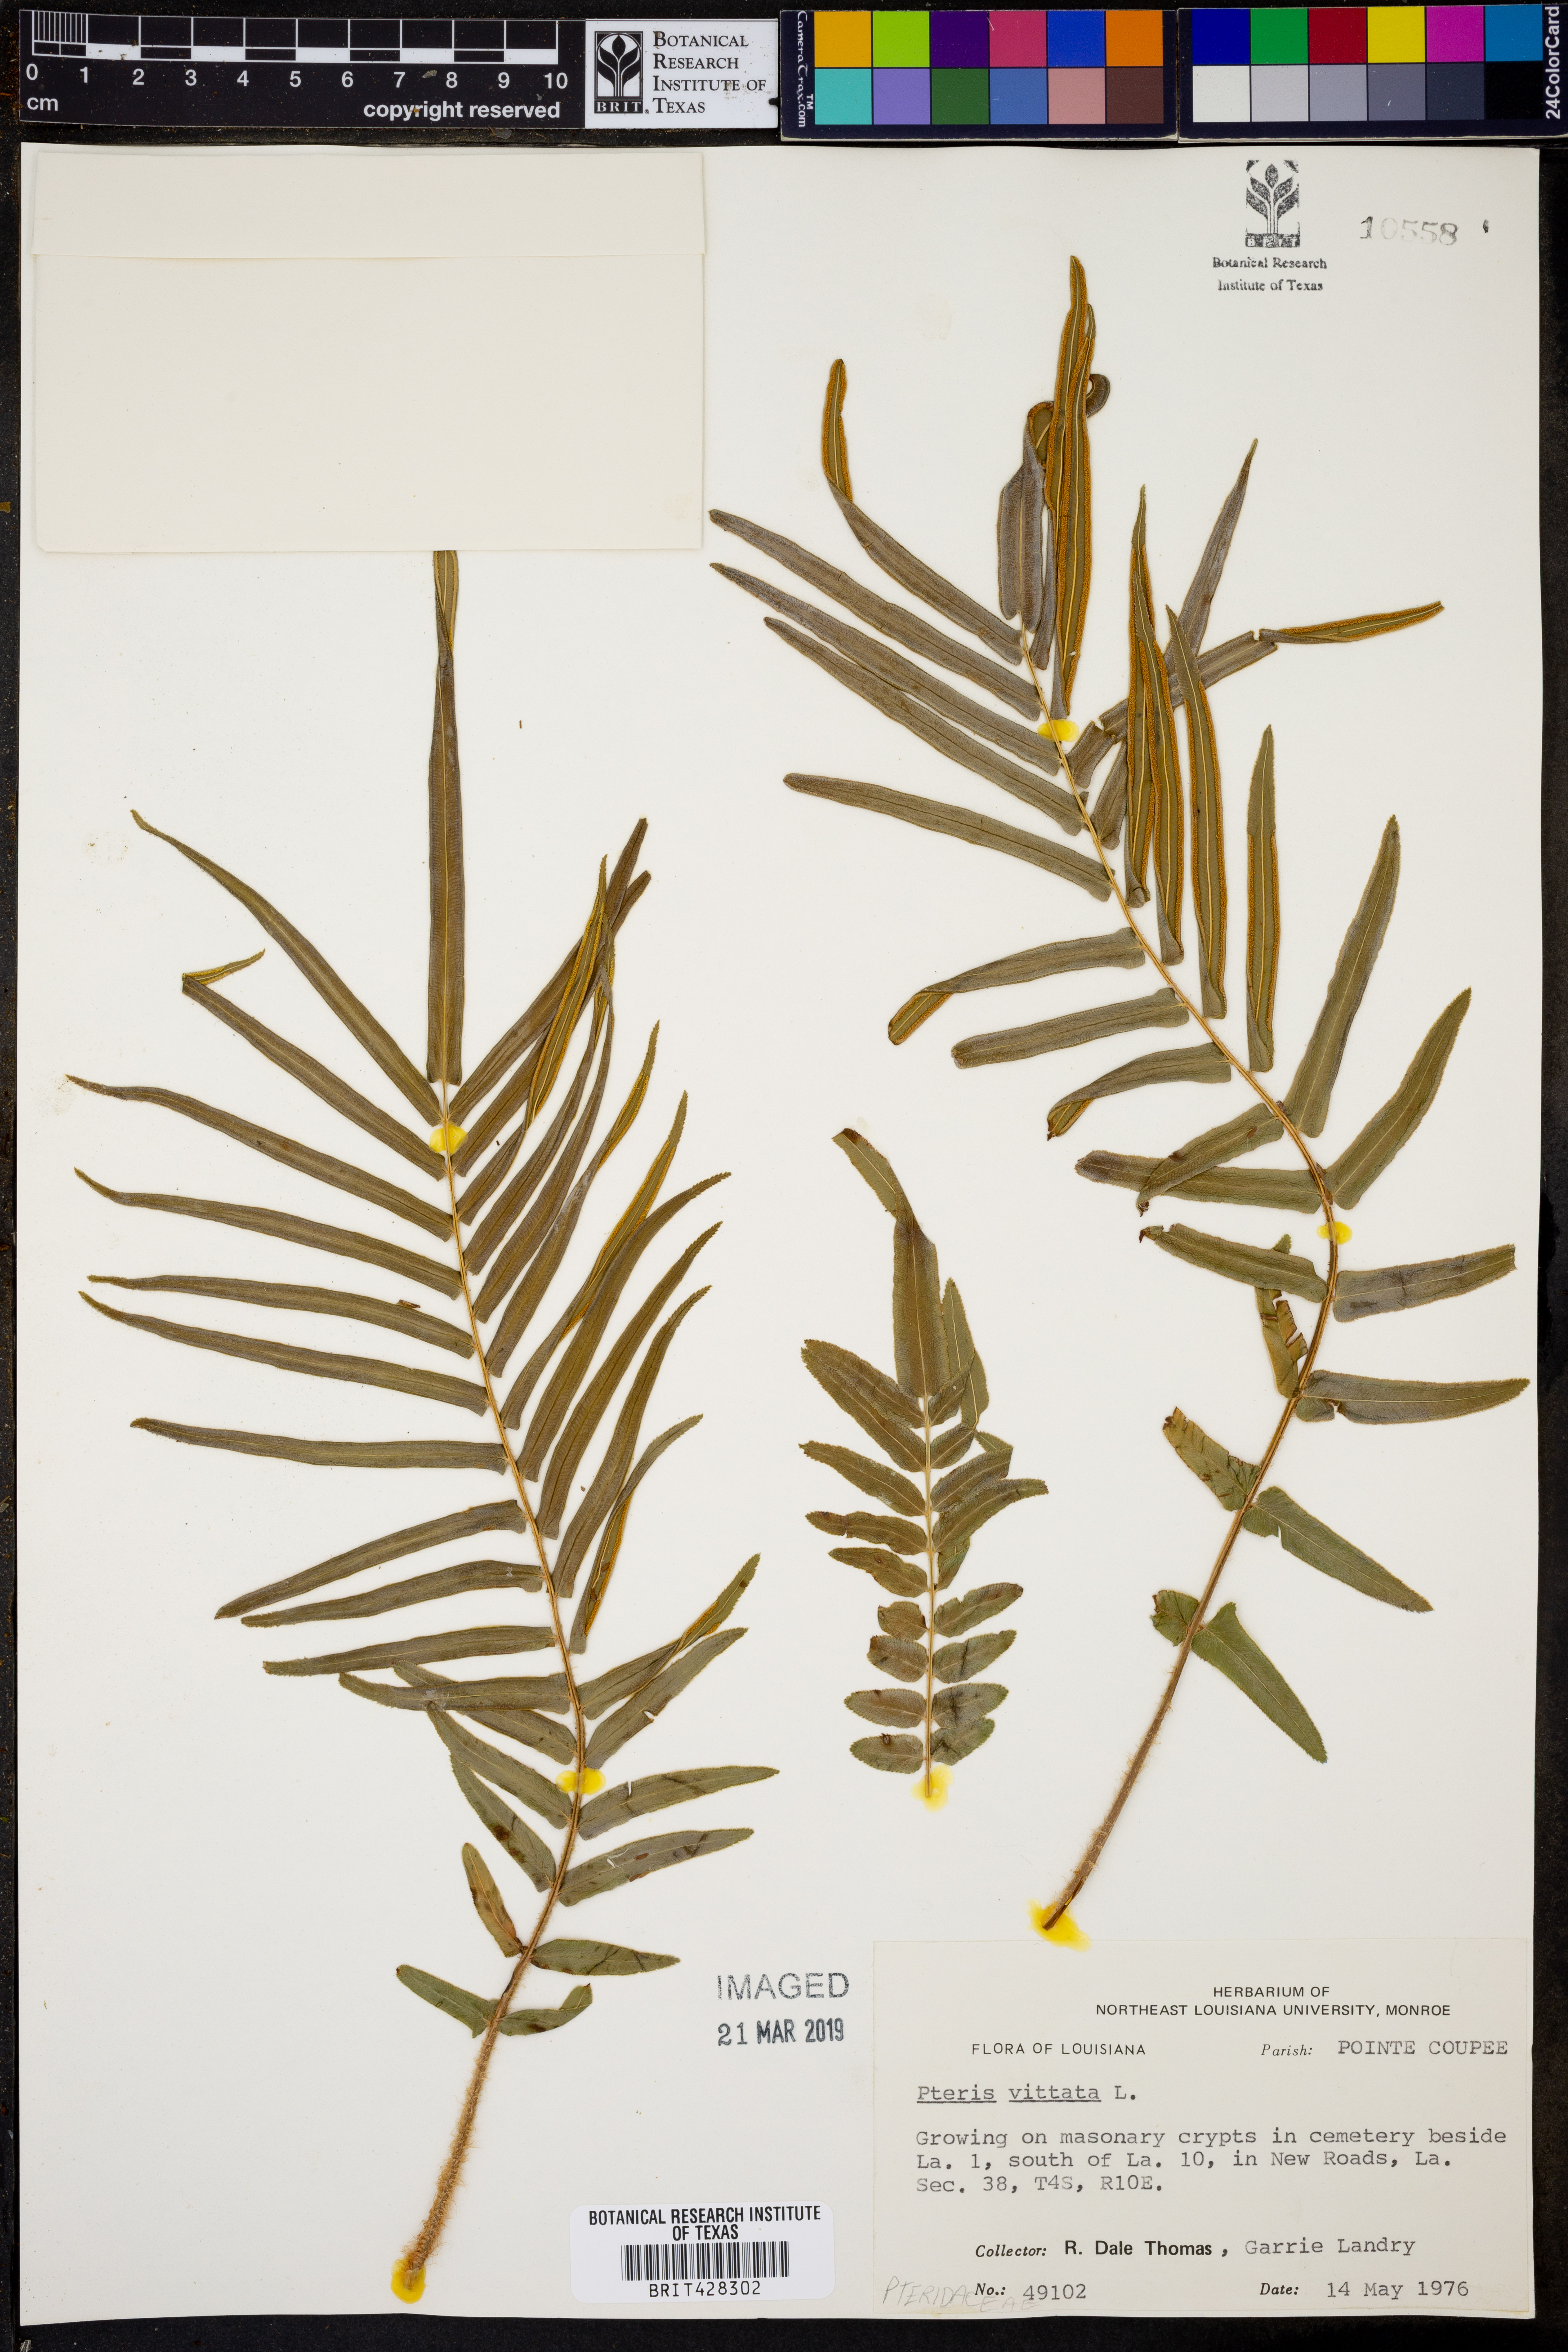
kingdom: Plantae
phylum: Tracheophyta
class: Polypodiopsida
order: Polypodiales
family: Pteridaceae
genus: Pteris
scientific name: Pteris vittata
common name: Ladder brake
